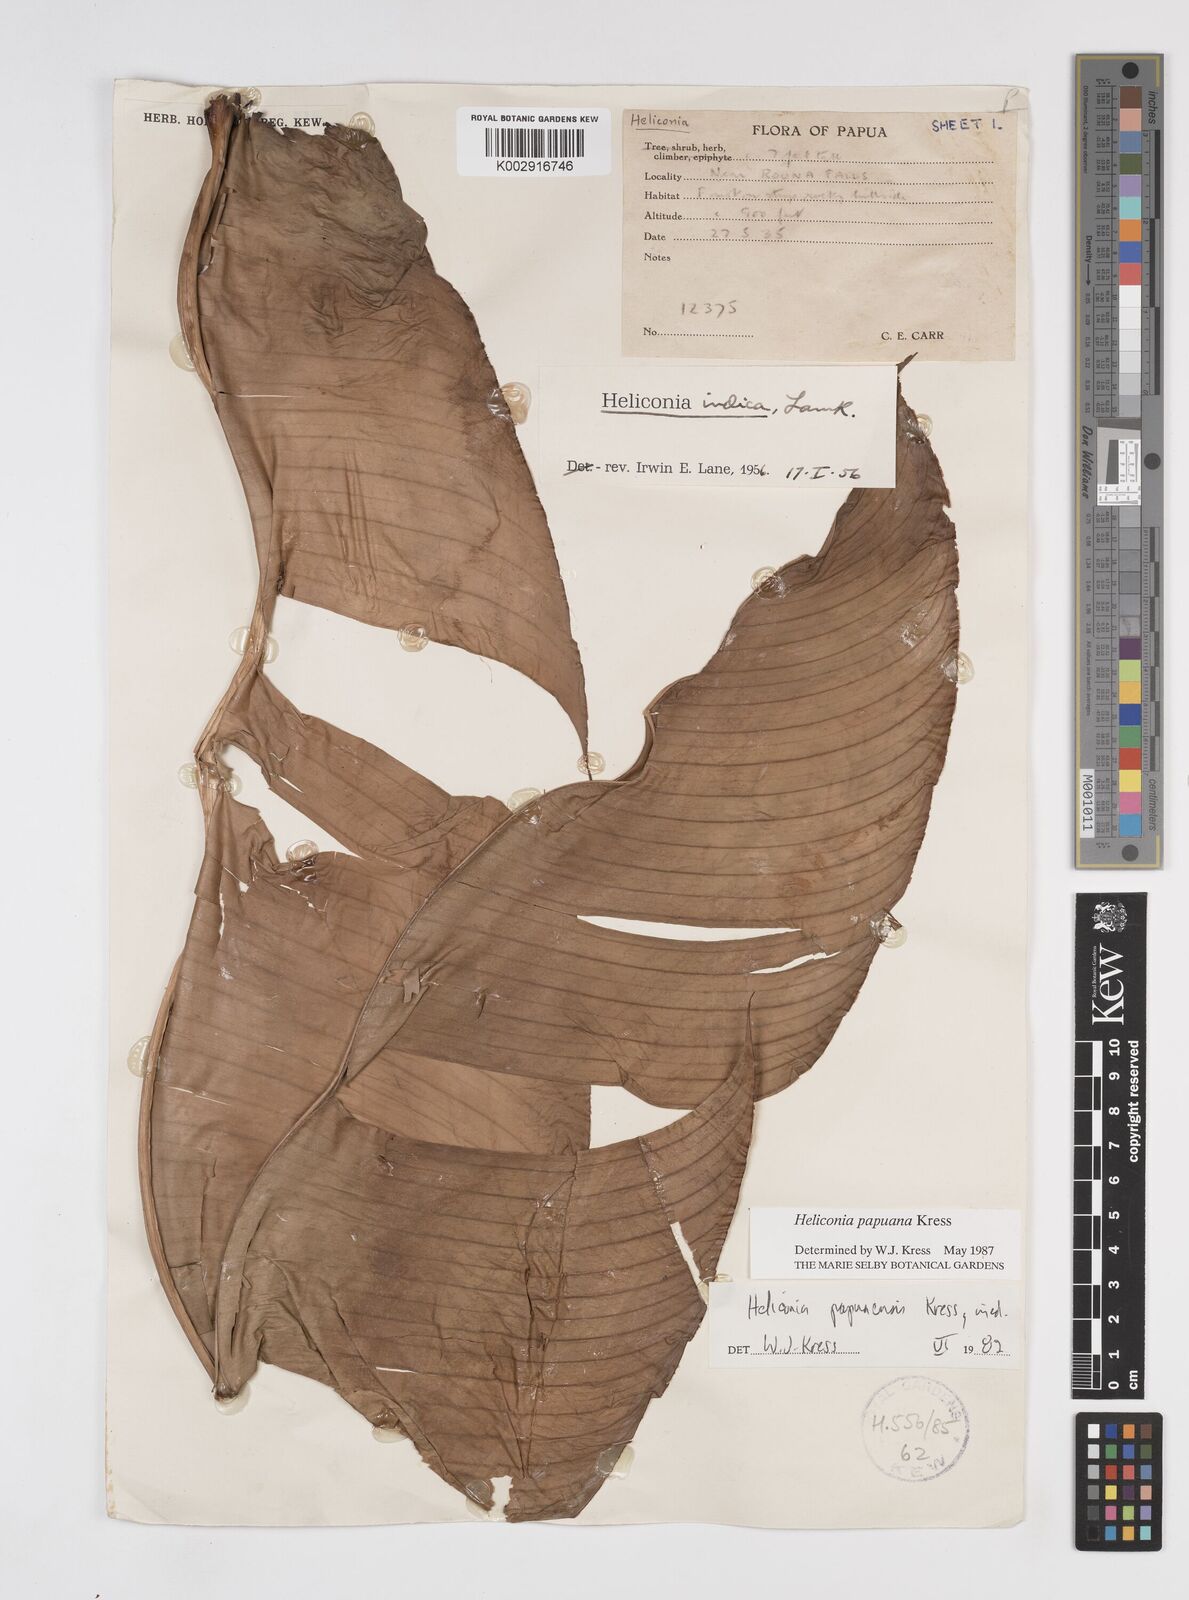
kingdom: Plantae
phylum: Tracheophyta
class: Liliopsida
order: Zingiberales
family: Heliconiaceae
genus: Heliconia
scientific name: Heliconia papuana
